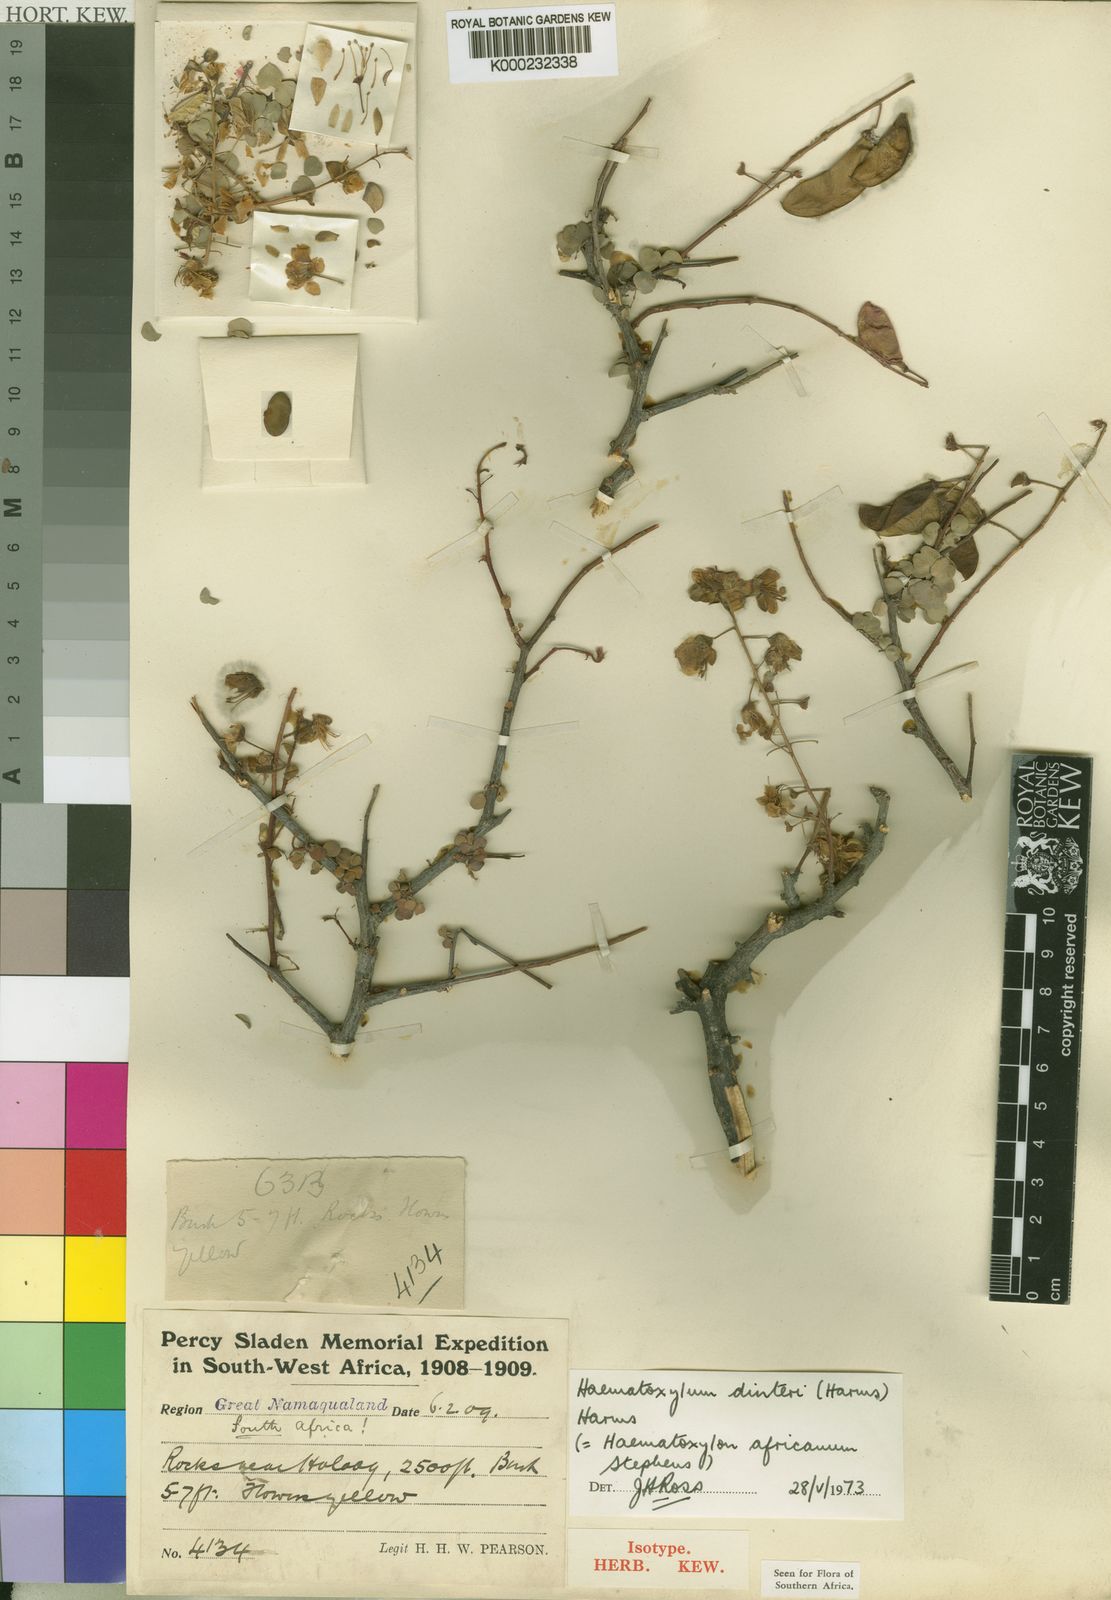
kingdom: Plantae
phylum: Tracheophyta
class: Magnoliopsida
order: Fabales
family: Fabaceae
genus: Haematoxylum
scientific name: Haematoxylum dinteri
